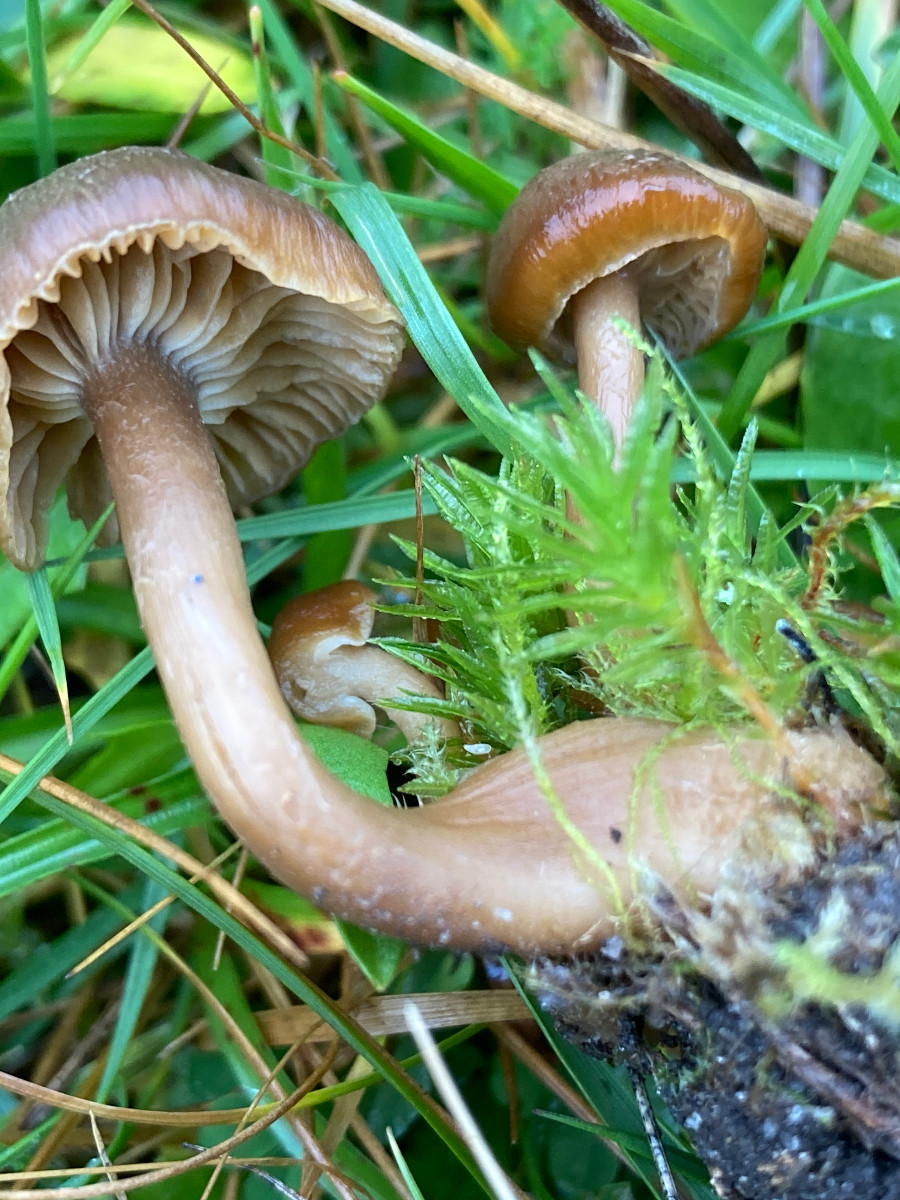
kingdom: Fungi
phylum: Basidiomycota
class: Agaricomycetes
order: Agaricales
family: Clavariaceae
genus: Camarophyllopsis
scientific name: Camarophyllopsis schulzeri
